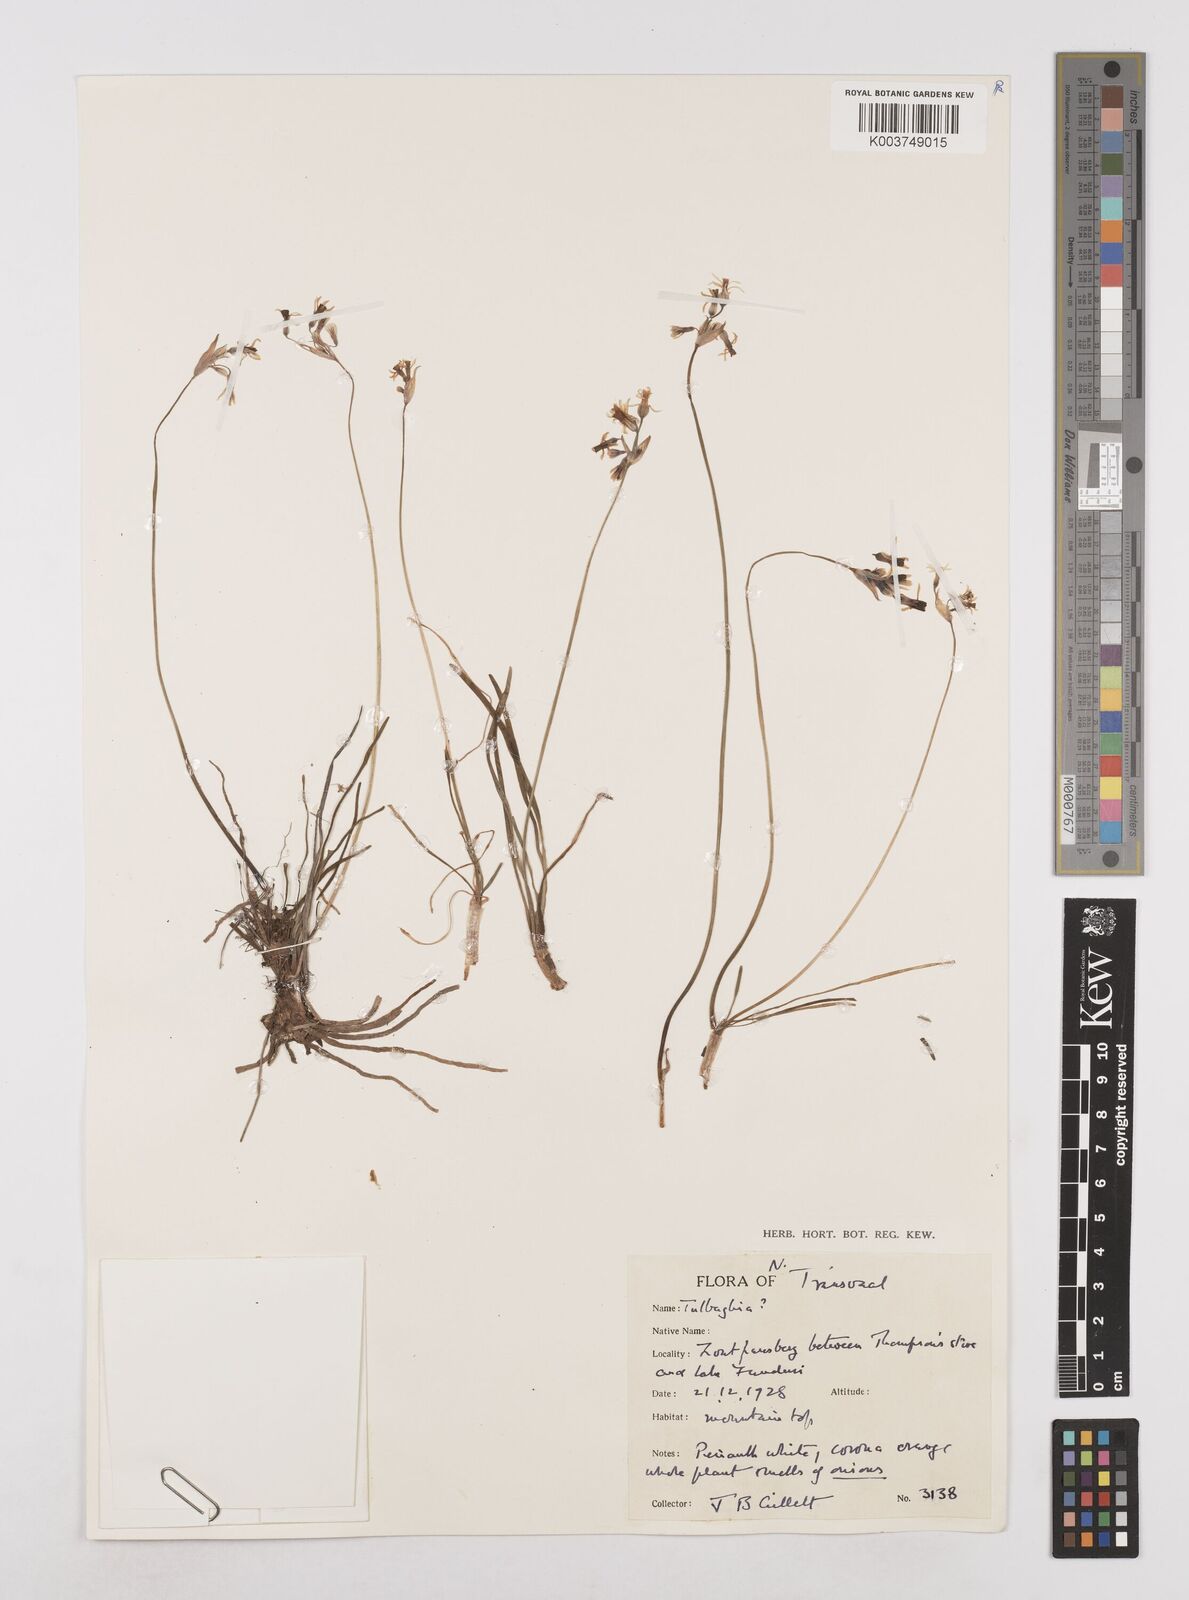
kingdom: Plantae
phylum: Tracheophyta
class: Liliopsida
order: Asparagales
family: Amaryllidaceae
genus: Tulbaghia
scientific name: Tulbaghia leucantha
